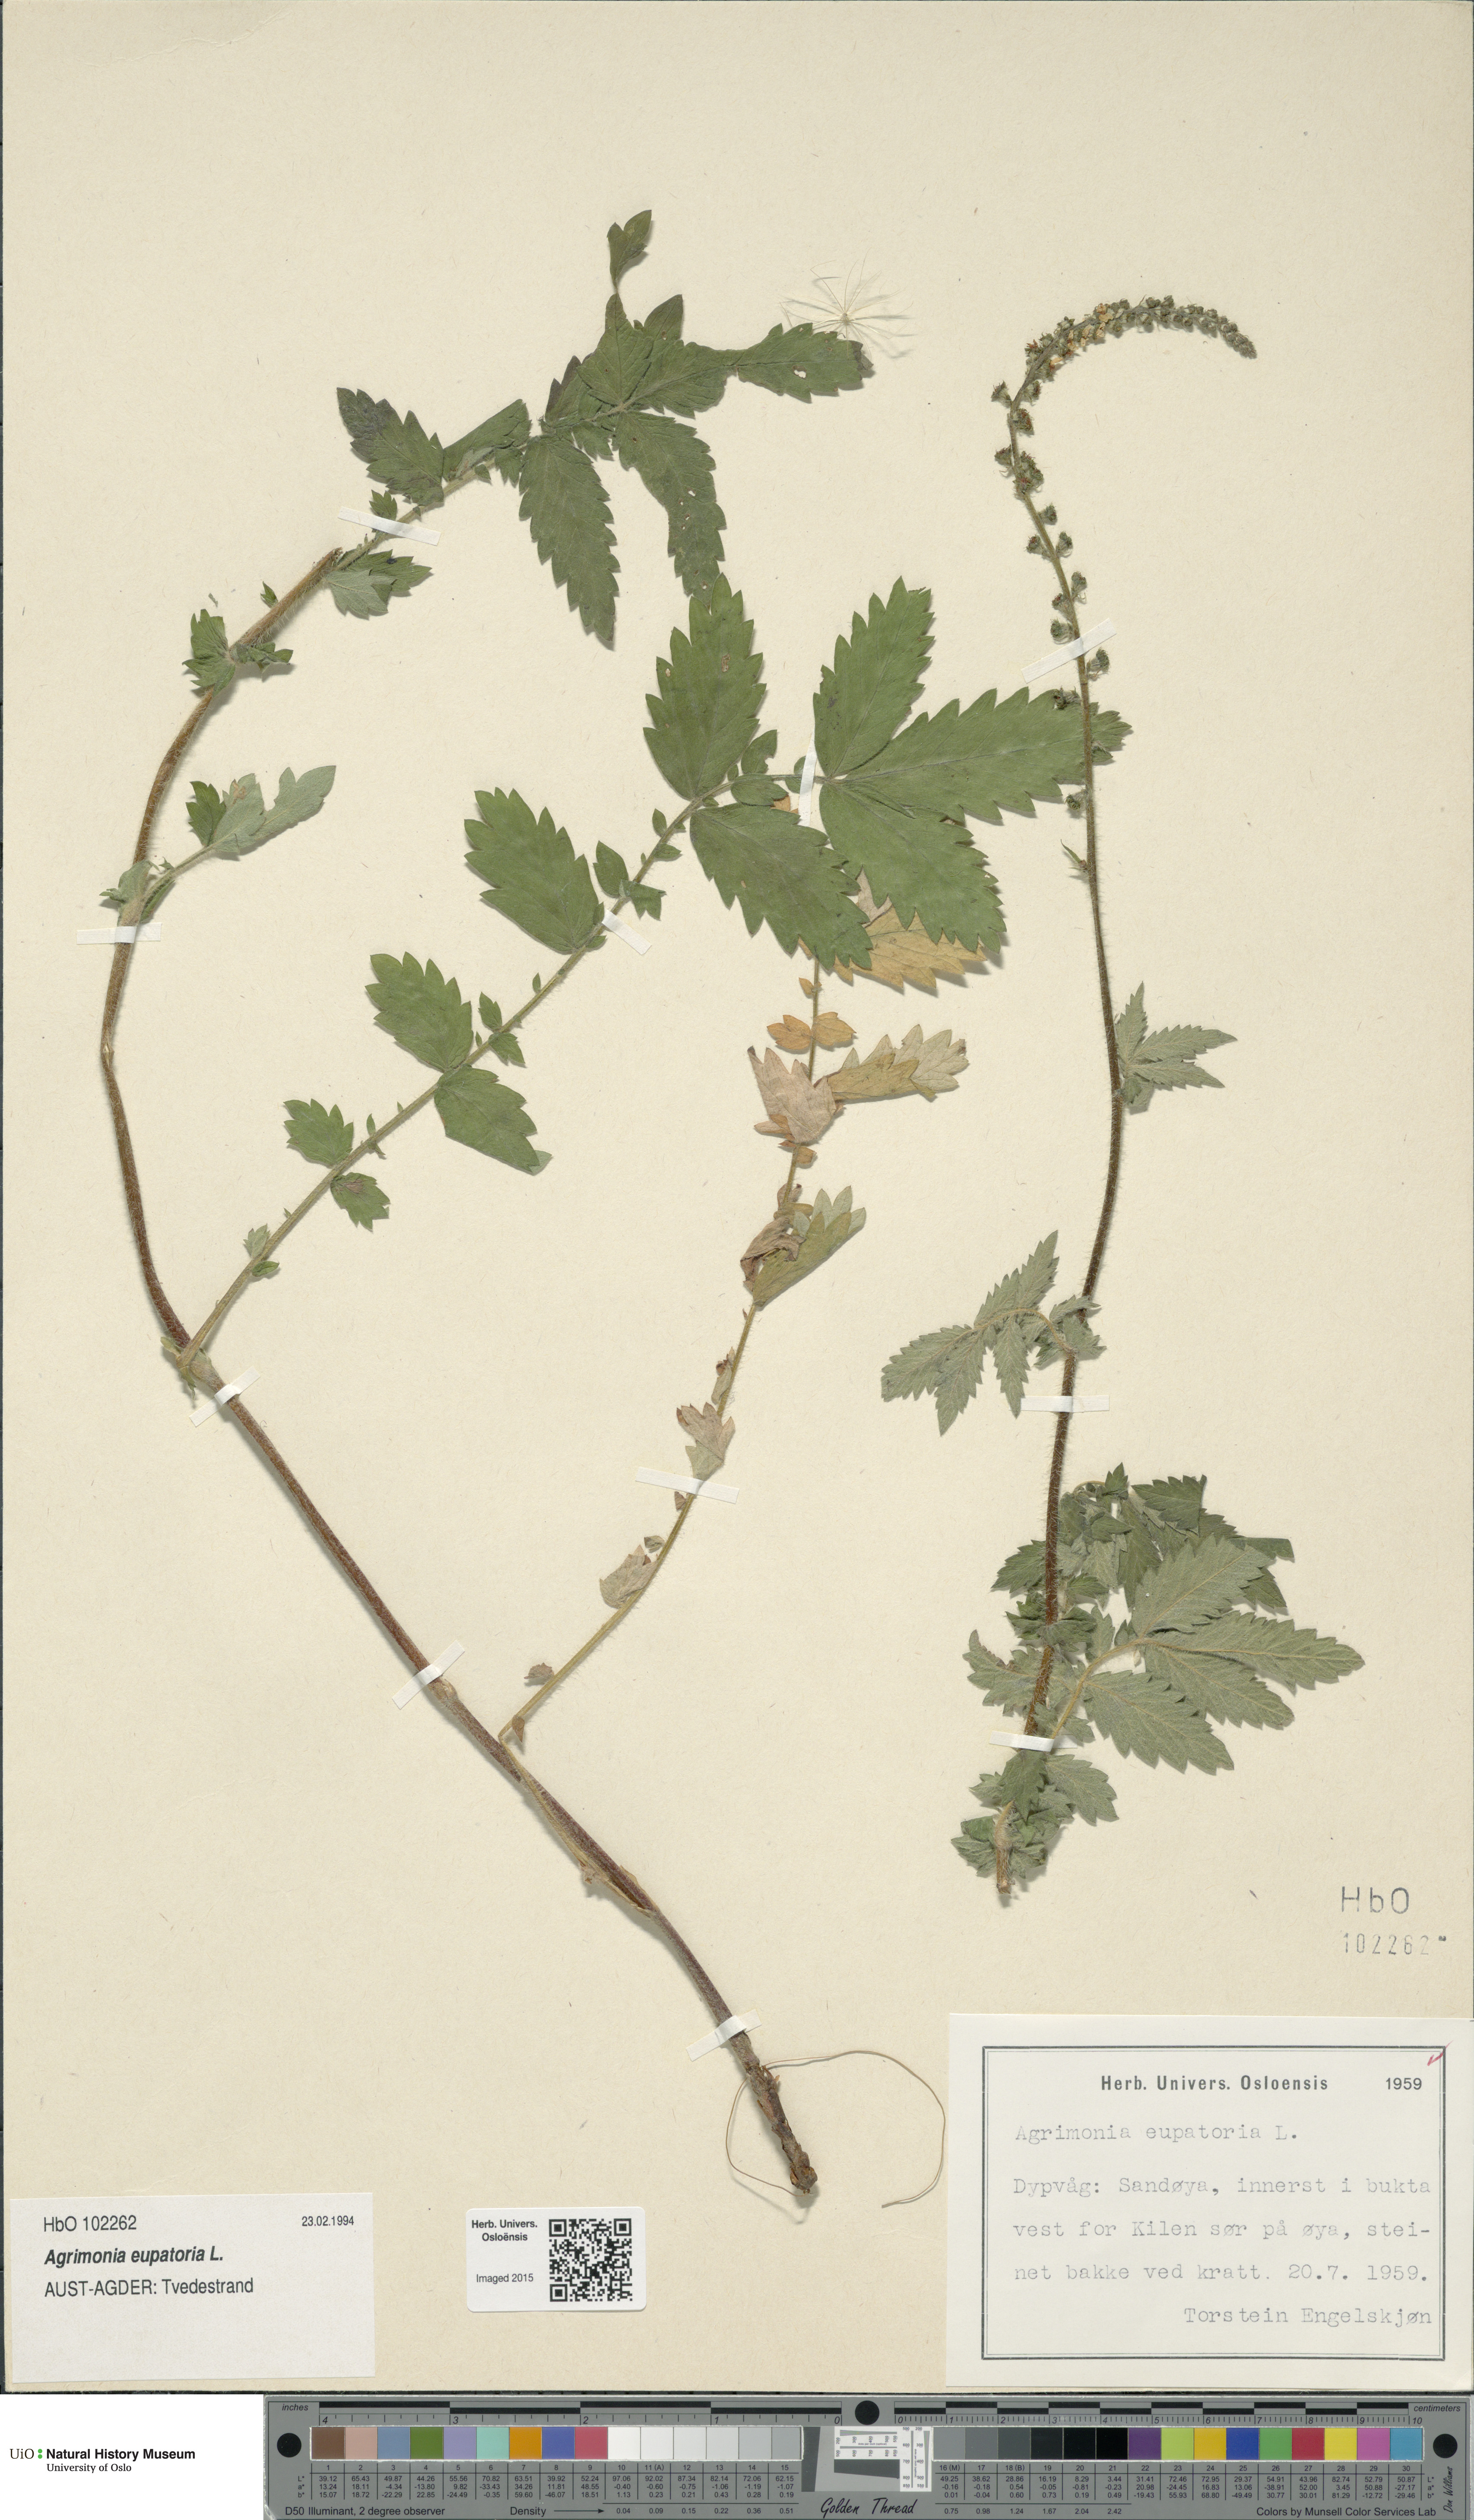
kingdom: Plantae
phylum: Tracheophyta
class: Magnoliopsida
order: Rosales
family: Rosaceae
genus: Agrimonia
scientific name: Agrimonia eupatoria
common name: Agrimony
